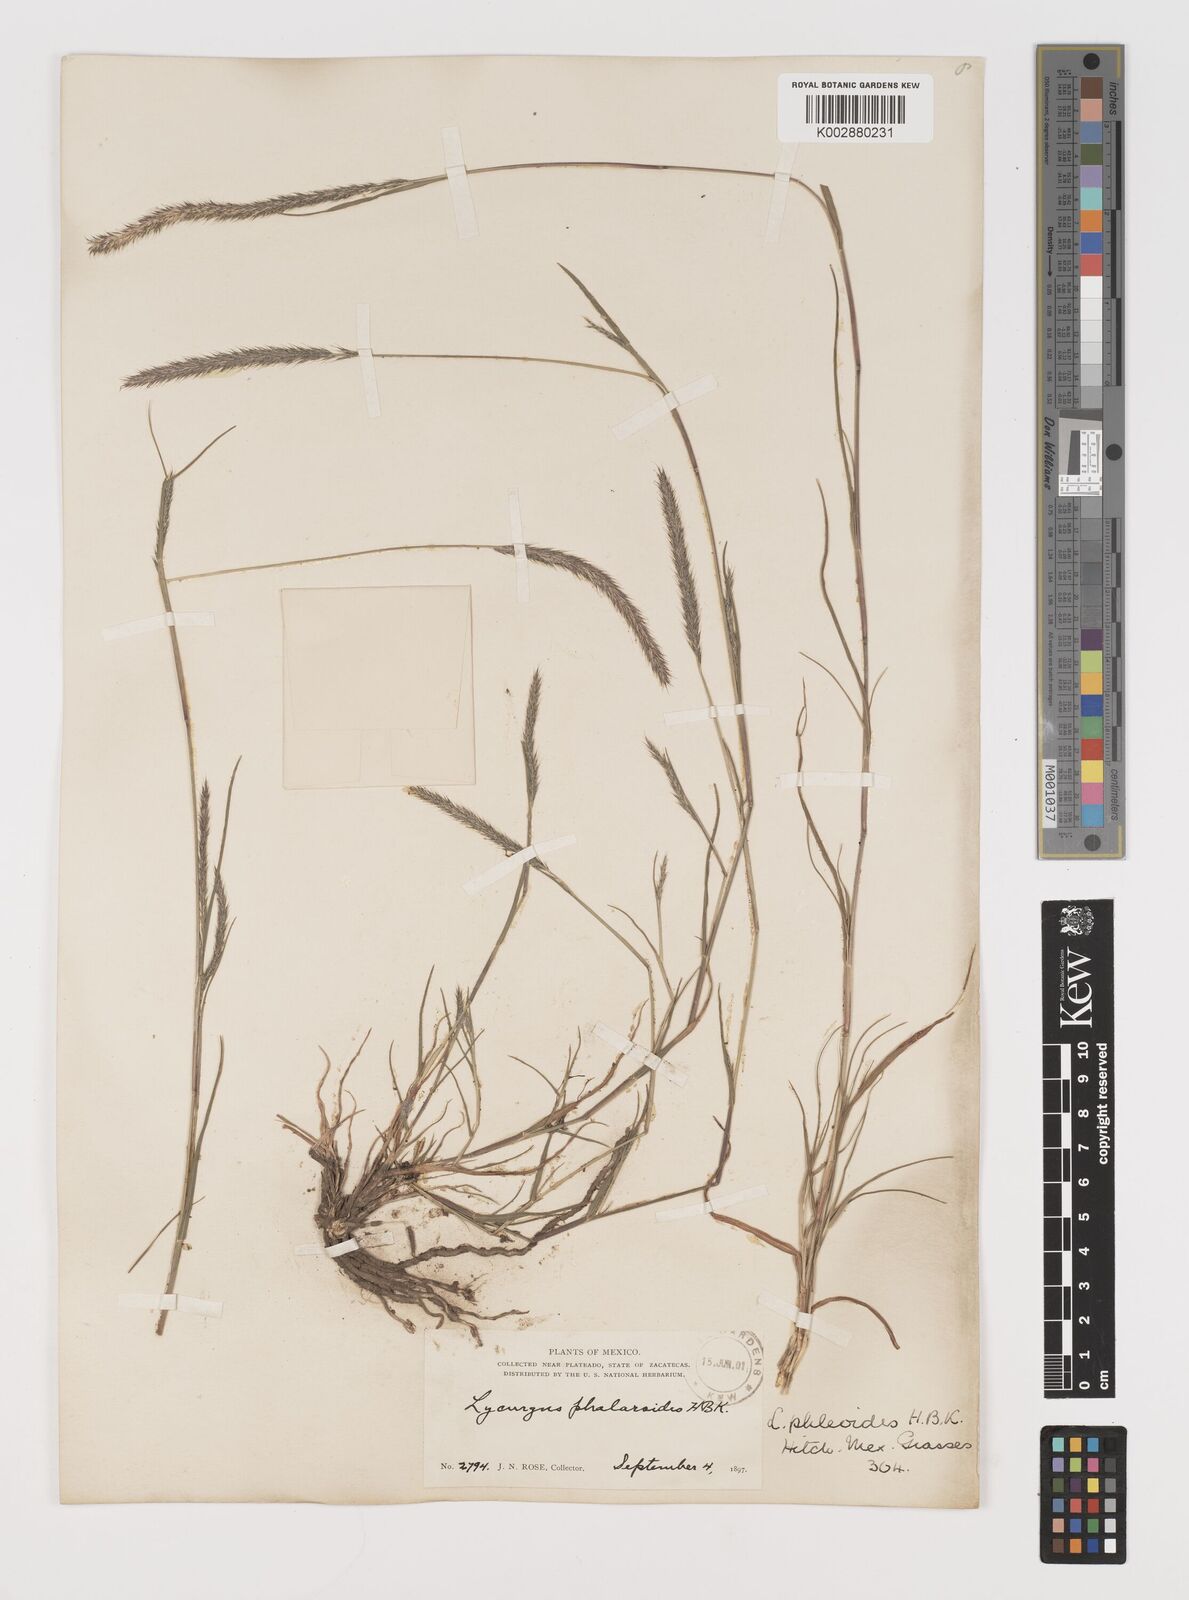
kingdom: Plantae
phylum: Tracheophyta
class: Liliopsida
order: Poales
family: Poaceae
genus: Muhlenbergia
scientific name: Muhlenbergia phleoides
